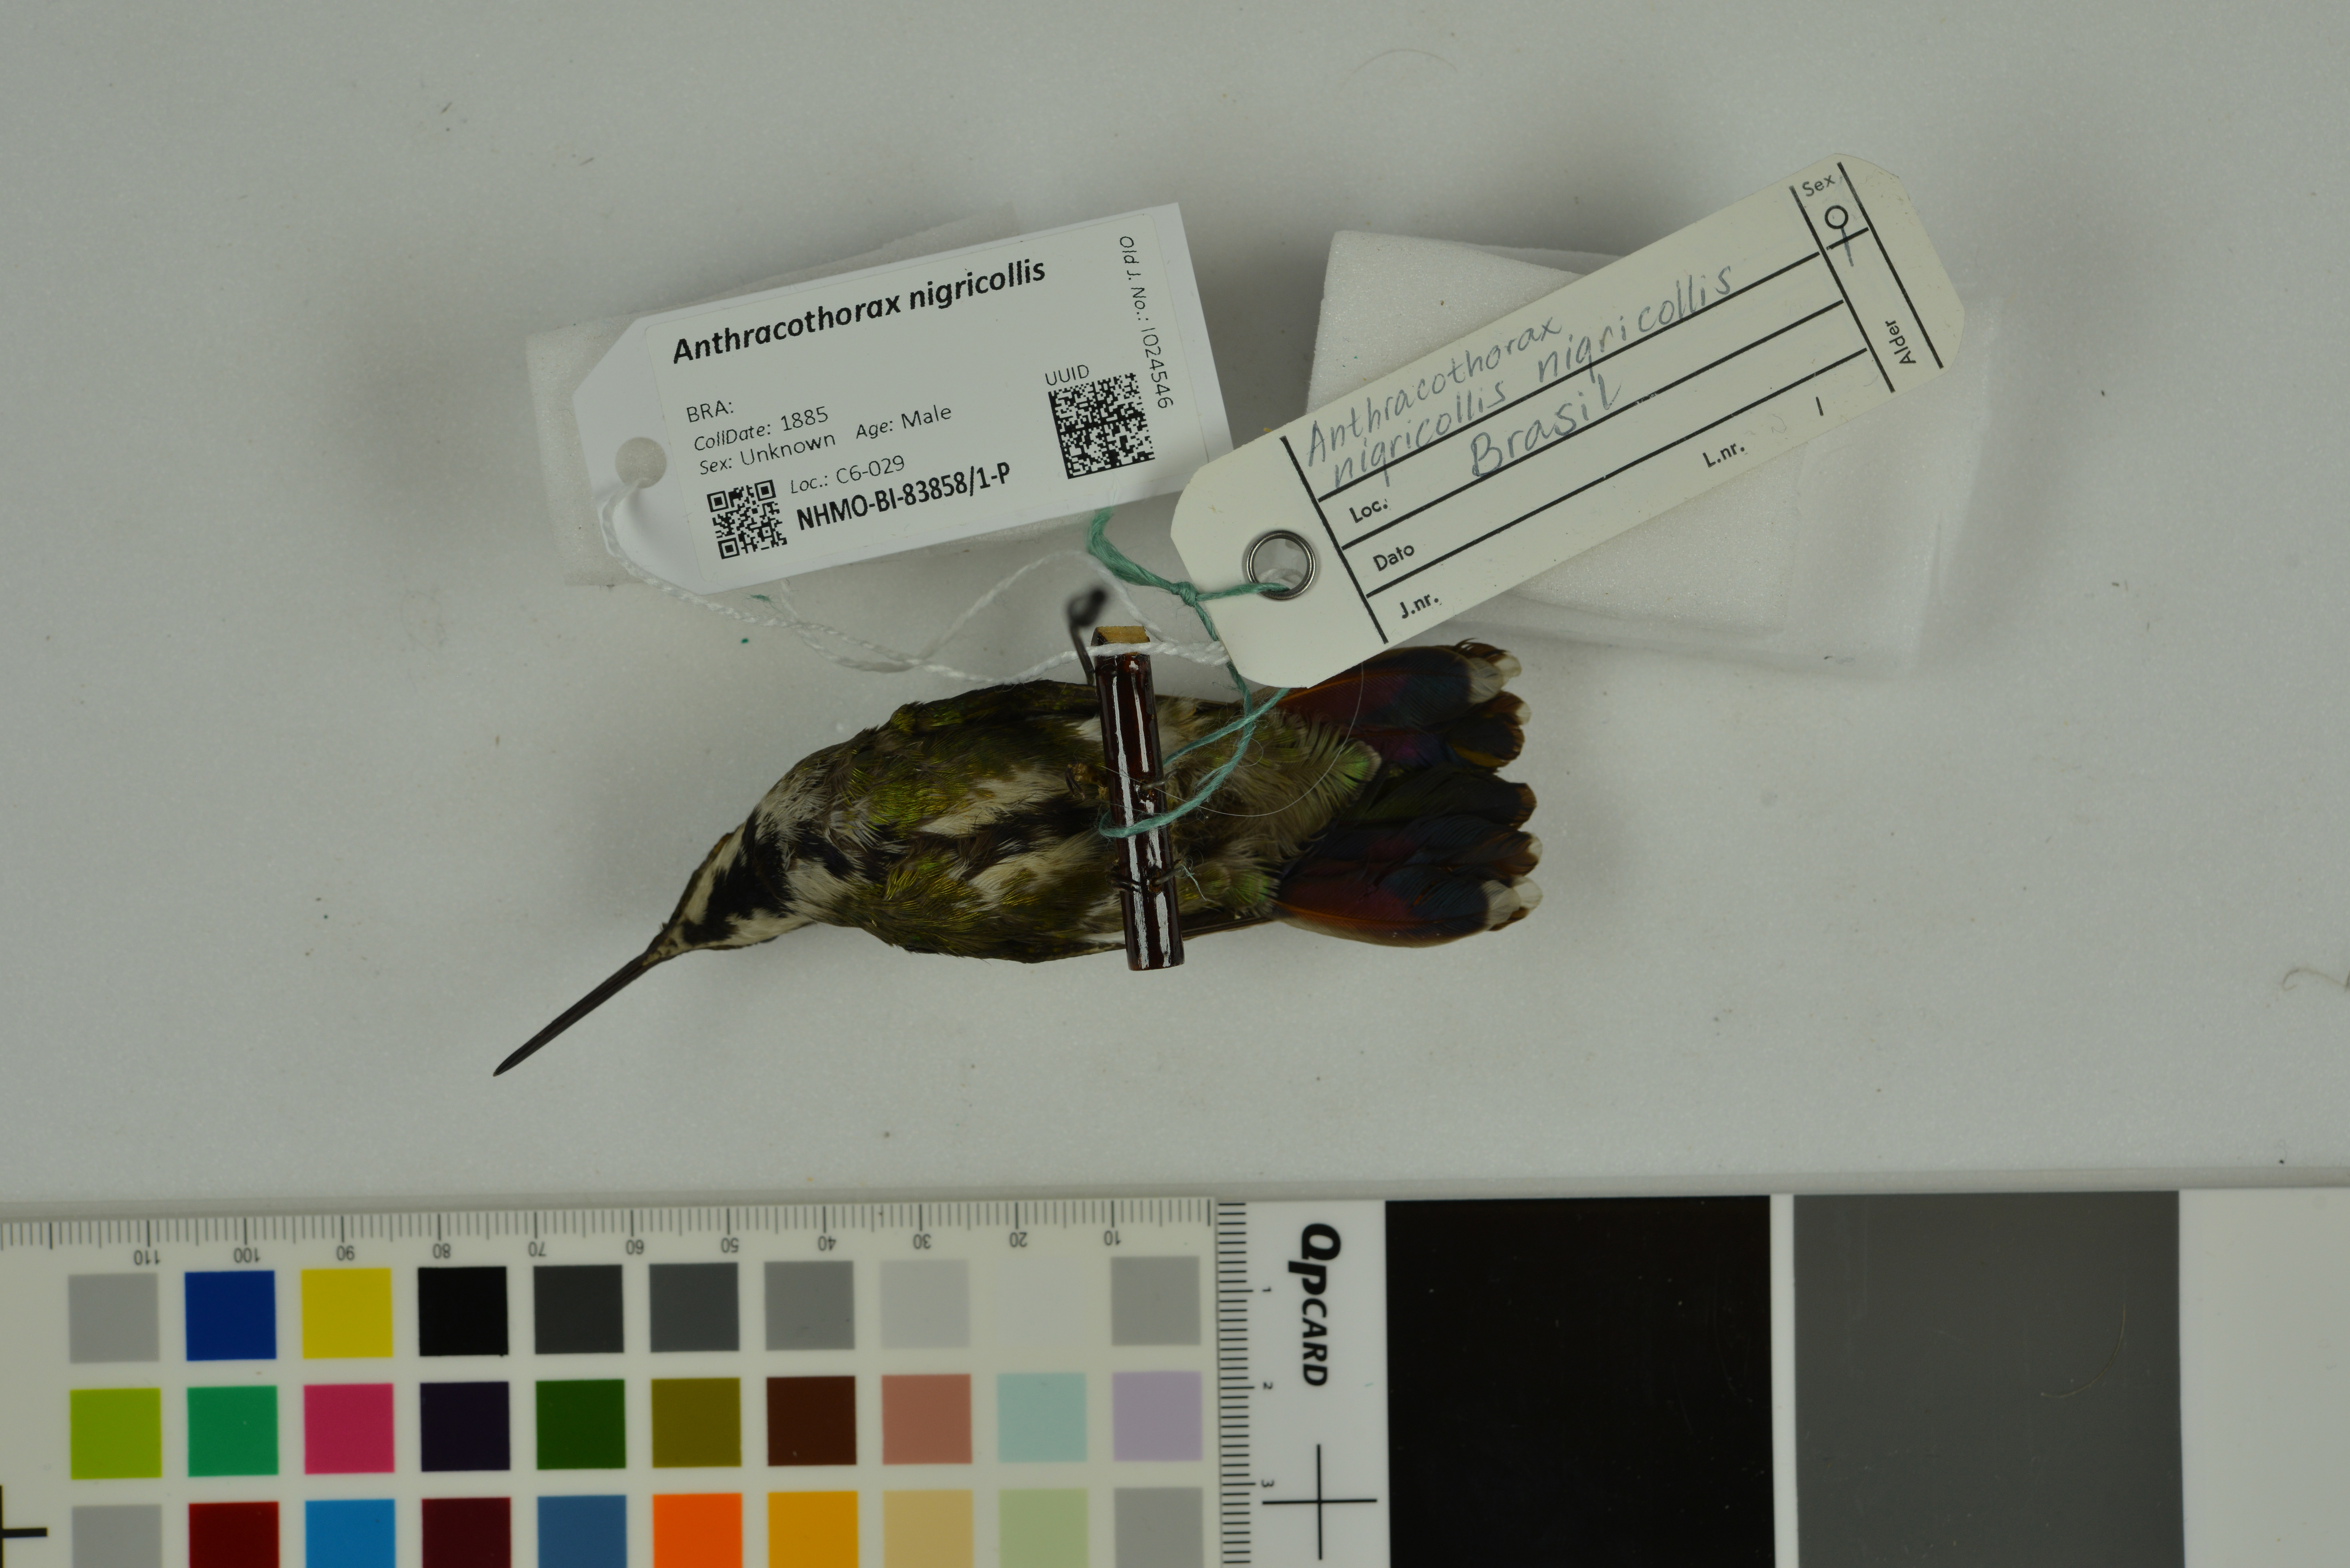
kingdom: Animalia
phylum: Chordata
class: Aves
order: Apodiformes
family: Trochilidae
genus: Anthracothorax
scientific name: Anthracothorax nigricollis
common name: Black-throated mango
